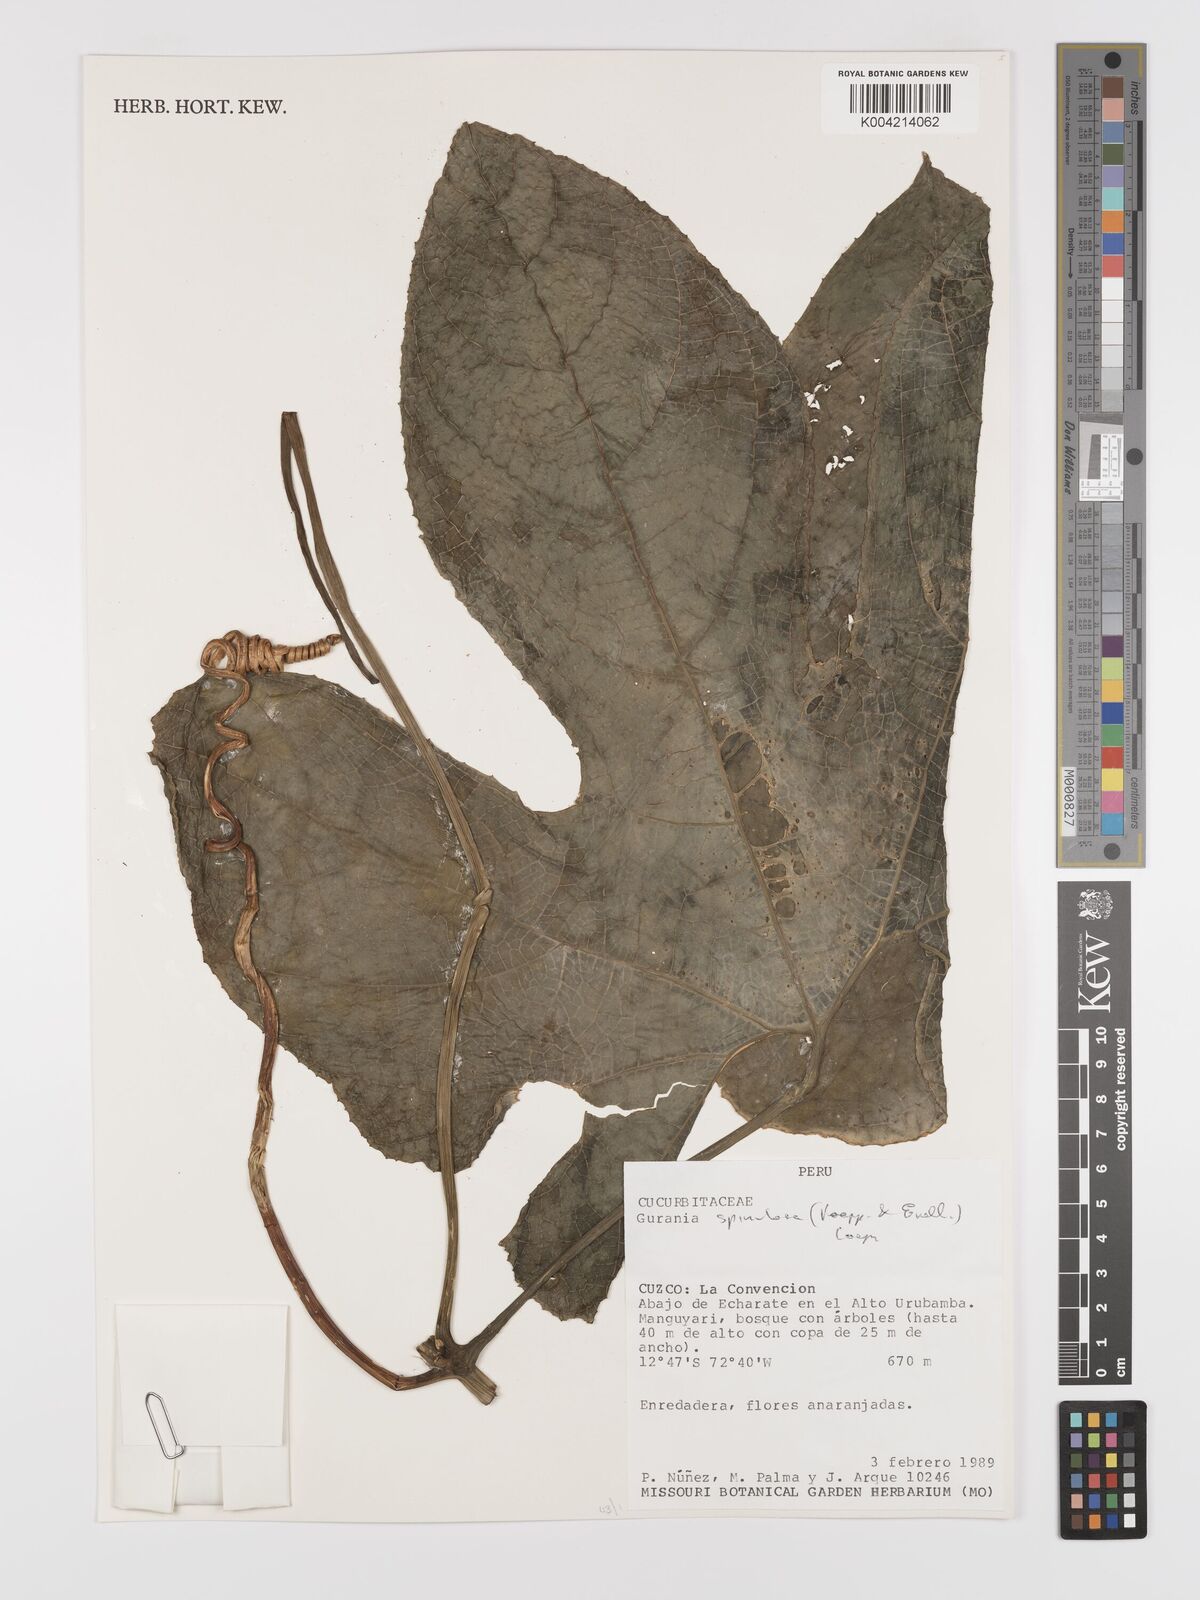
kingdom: Plantae
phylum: Tracheophyta
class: Magnoliopsida
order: Cucurbitales
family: Cucurbitaceae
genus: Gurania
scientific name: Gurania lobata
